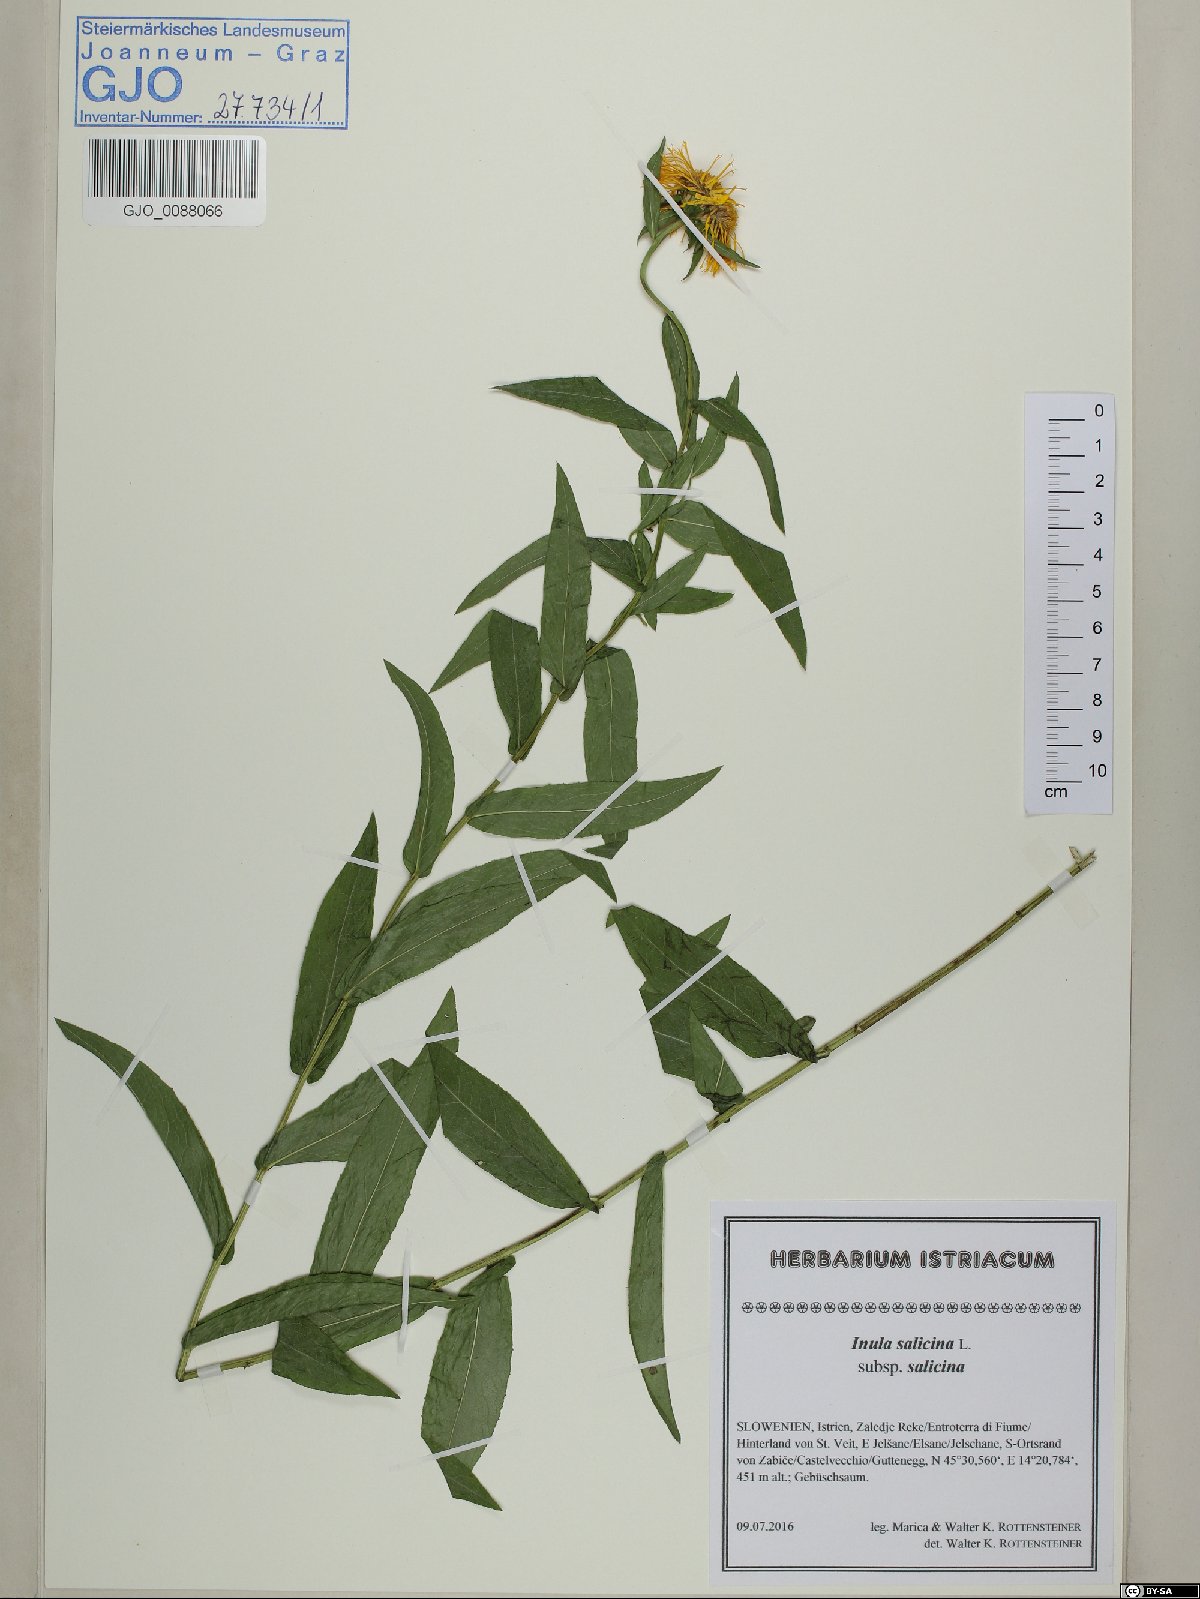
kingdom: Plantae
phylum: Tracheophyta
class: Magnoliopsida
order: Asterales
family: Asteraceae
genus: Pentanema
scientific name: Pentanema salicinum
